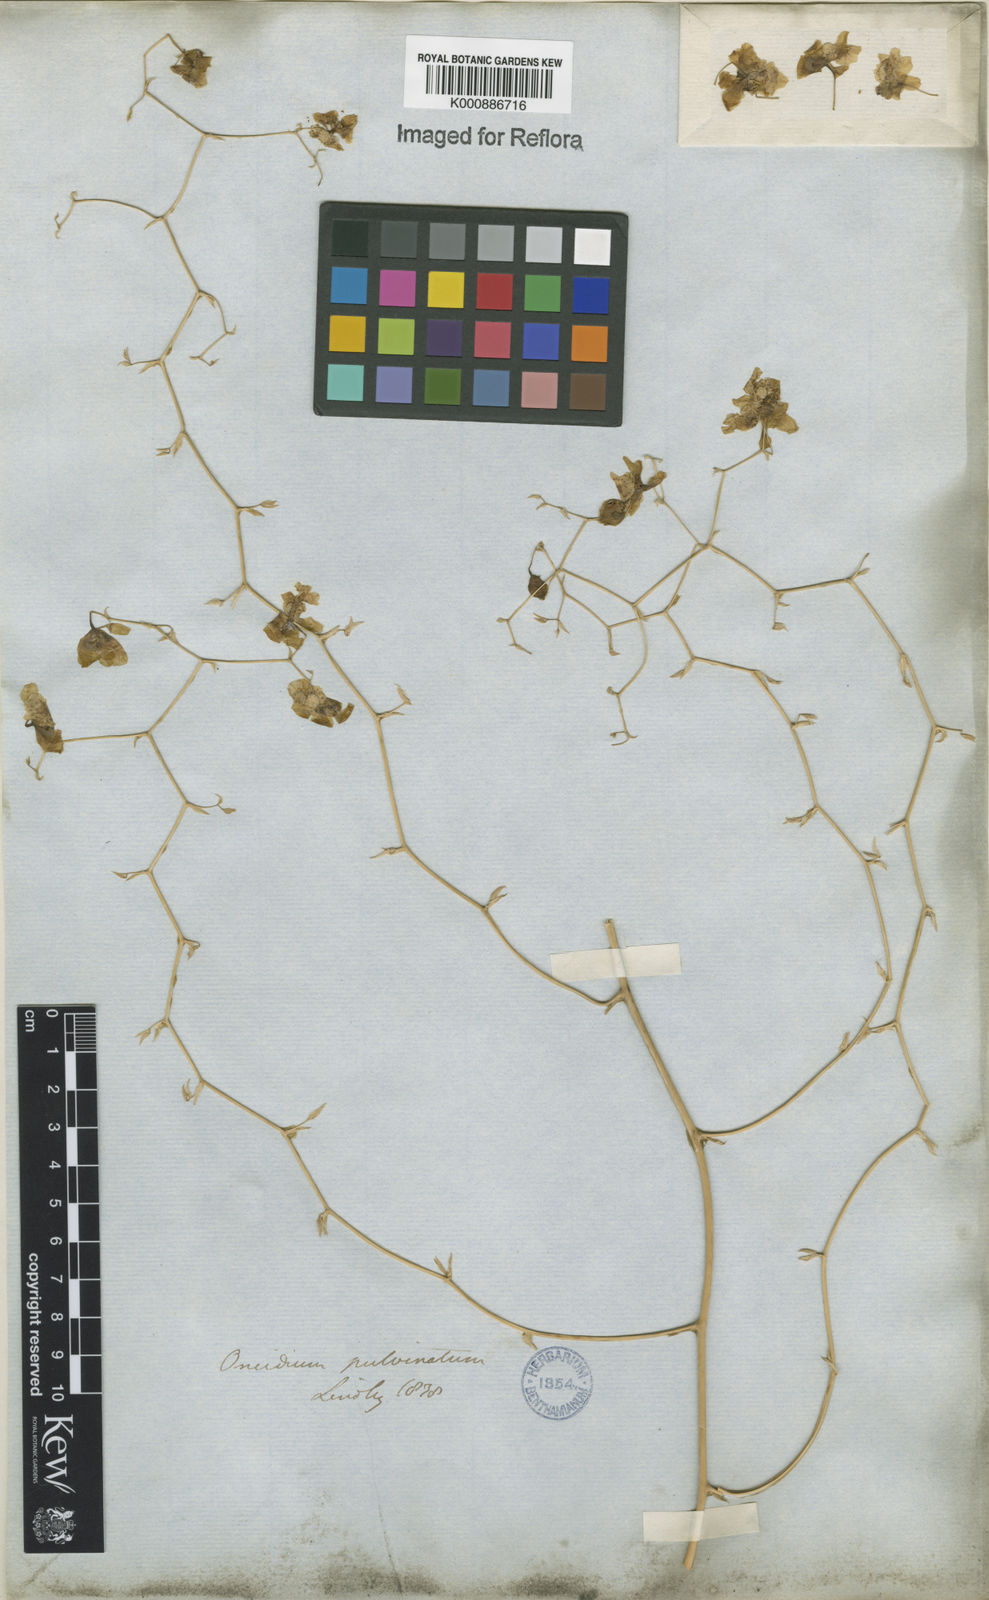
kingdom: Plantae
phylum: Tracheophyta
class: Liliopsida
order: Asparagales
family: Orchidaceae
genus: Grandiphyllum
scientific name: Grandiphyllum divaricatum
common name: Mule-ear orchid
